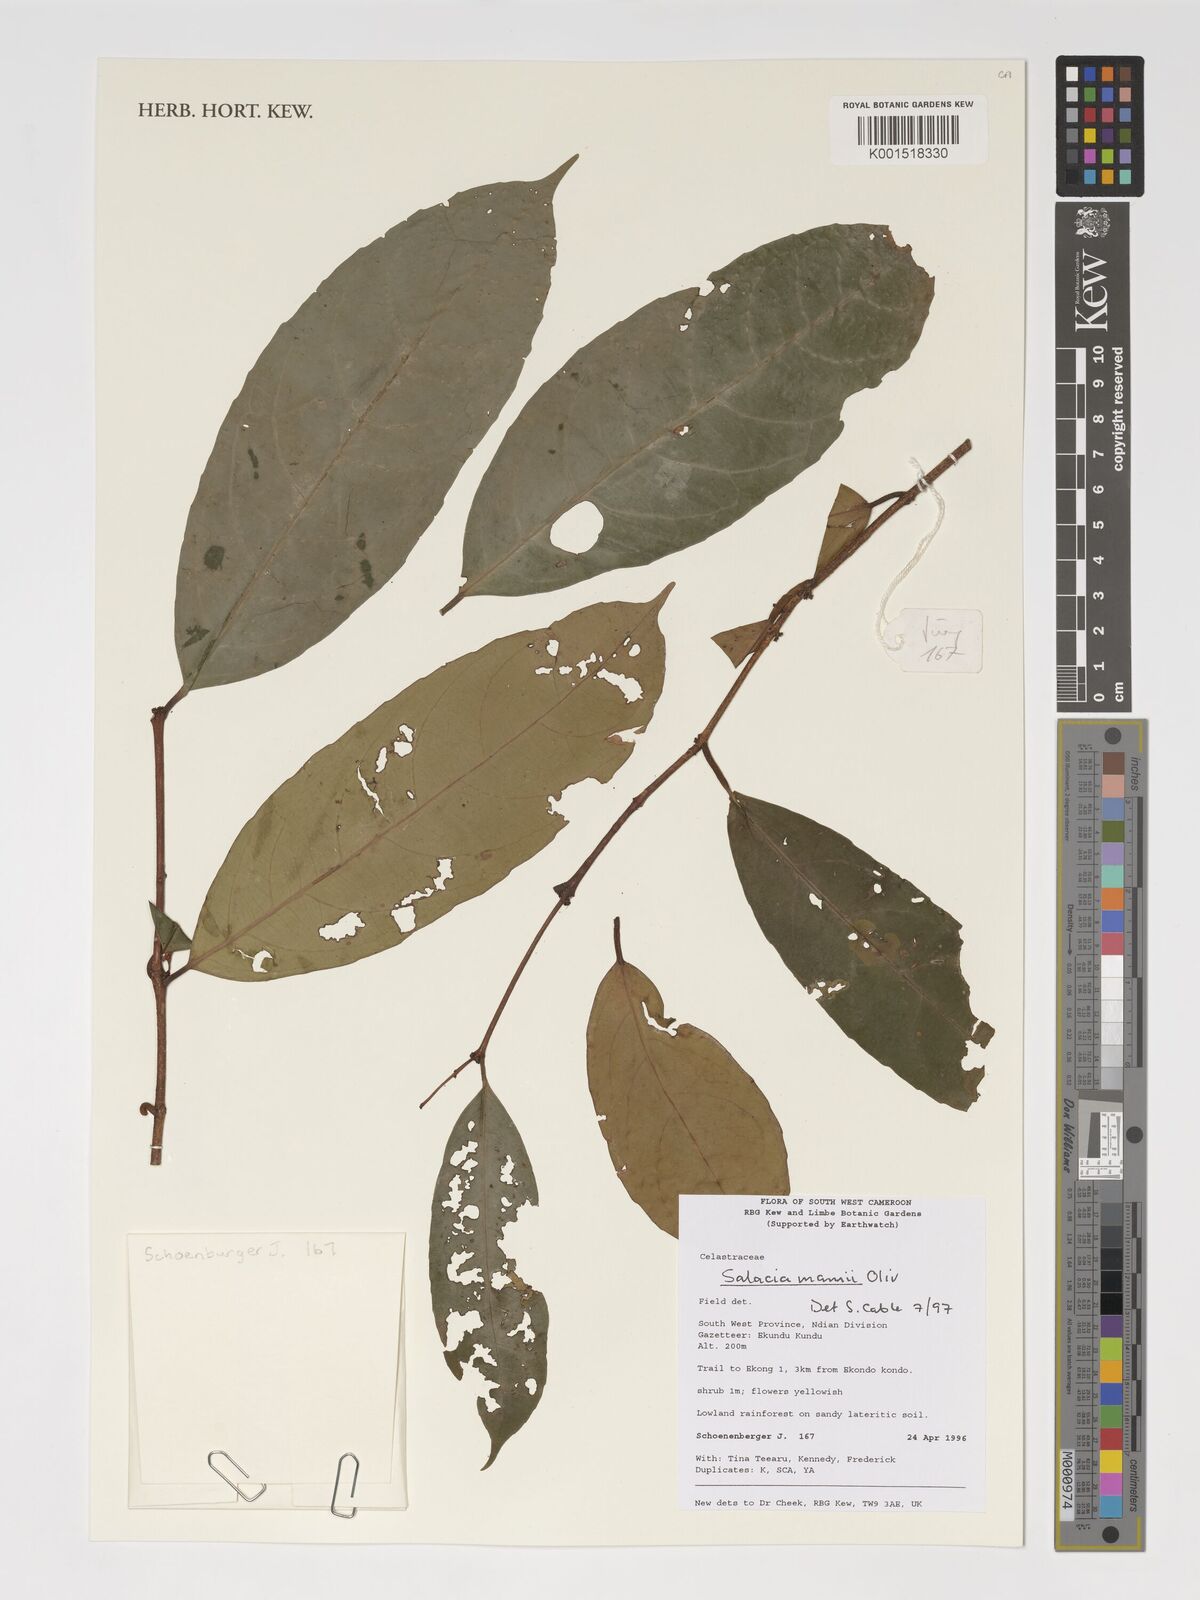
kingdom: Plantae
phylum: Tracheophyta
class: Magnoliopsida
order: Celastrales
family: Celastraceae
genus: Salacia
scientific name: Salacia mannii
